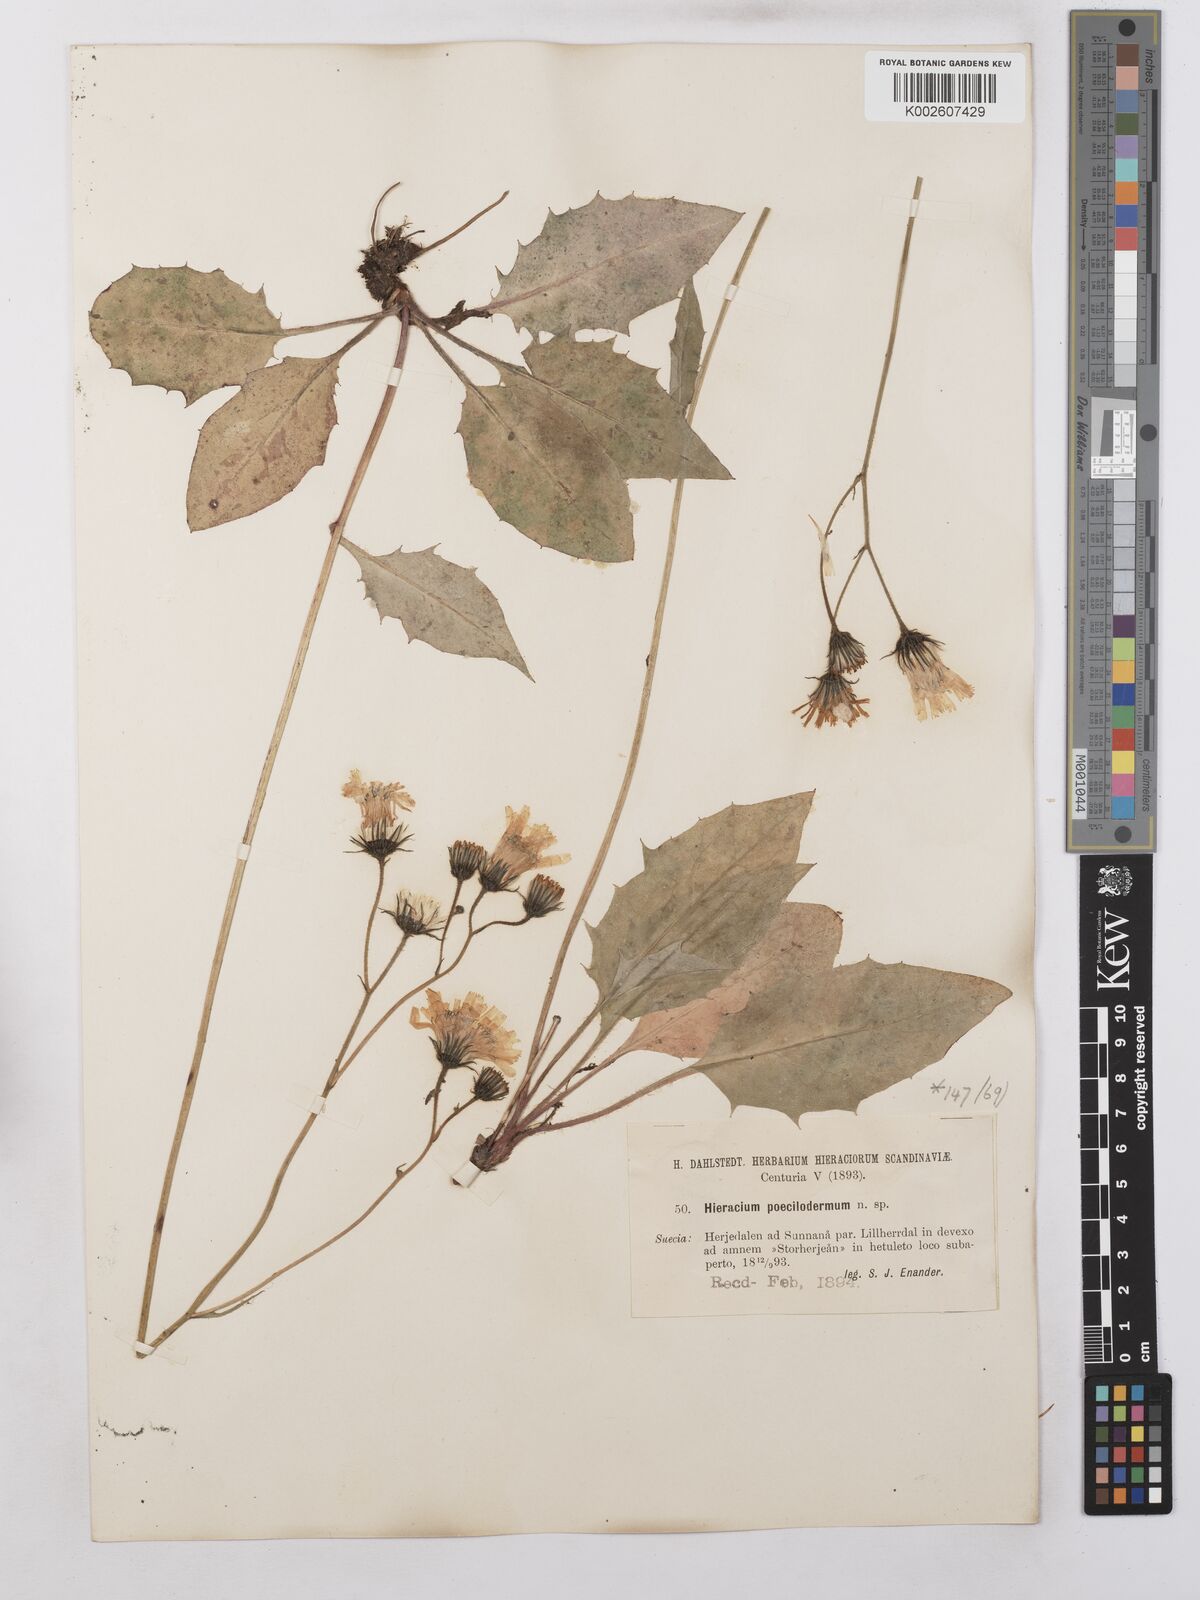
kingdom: Plantae
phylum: Tracheophyta
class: Magnoliopsida
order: Asterales
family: Asteraceae
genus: Hieracium
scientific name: Hieracium poecilodermum
